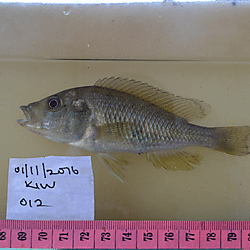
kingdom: Animalia
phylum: Chordata
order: Perciformes
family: Cichlidae
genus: Haplochromis
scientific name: Haplochromis riponianus
